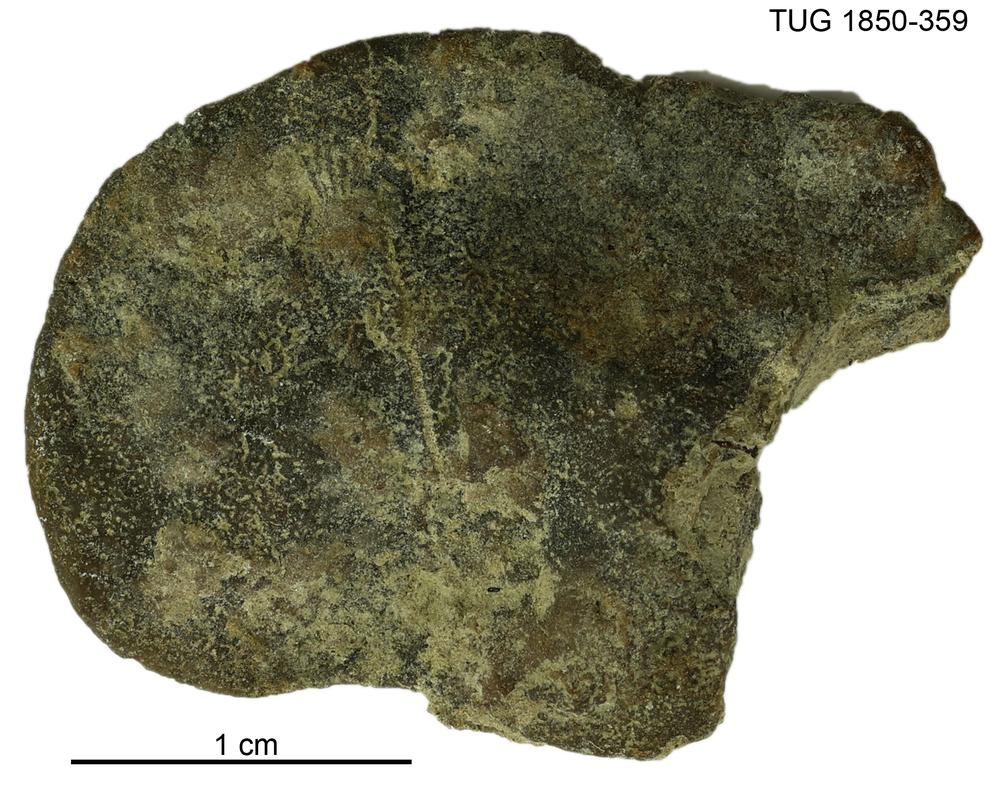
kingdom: Animalia
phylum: Porifera
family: Stromatoporidae
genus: Stromatopora
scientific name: Stromatopora
